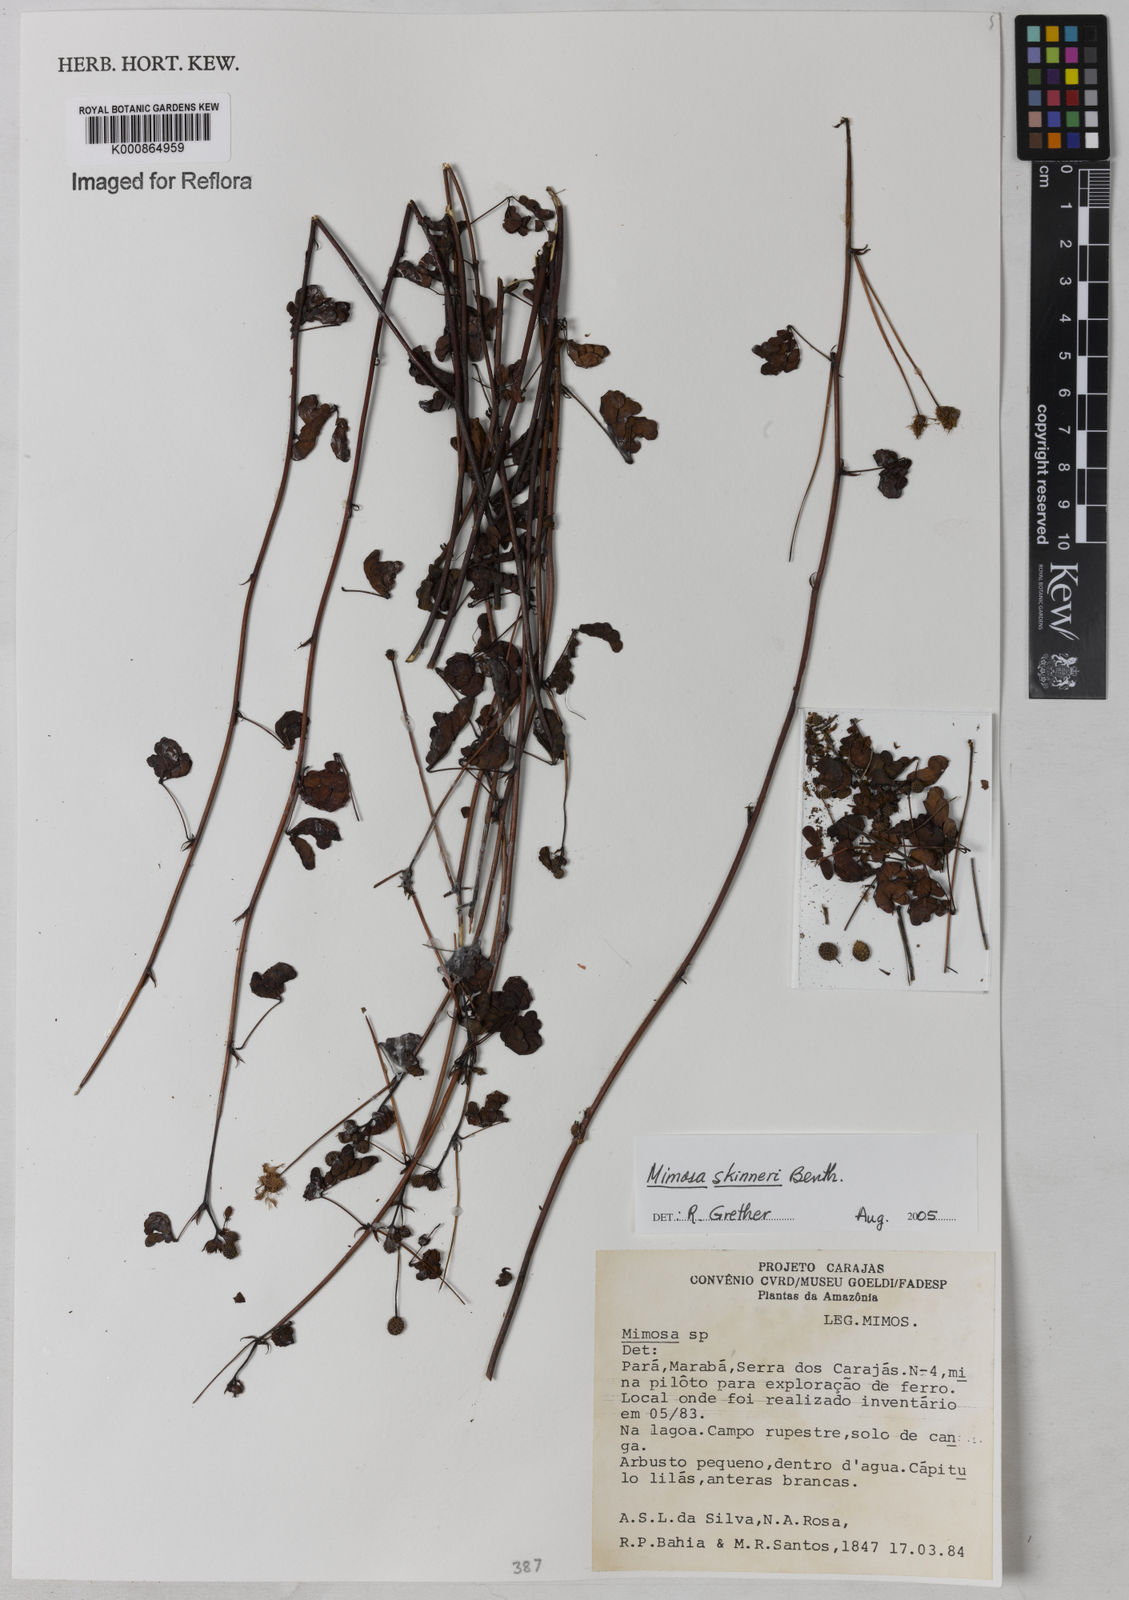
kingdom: Plantae
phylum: Tracheophyta
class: Magnoliopsida
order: Fabales
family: Fabaceae
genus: Mimosa
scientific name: Mimosa skinneri
